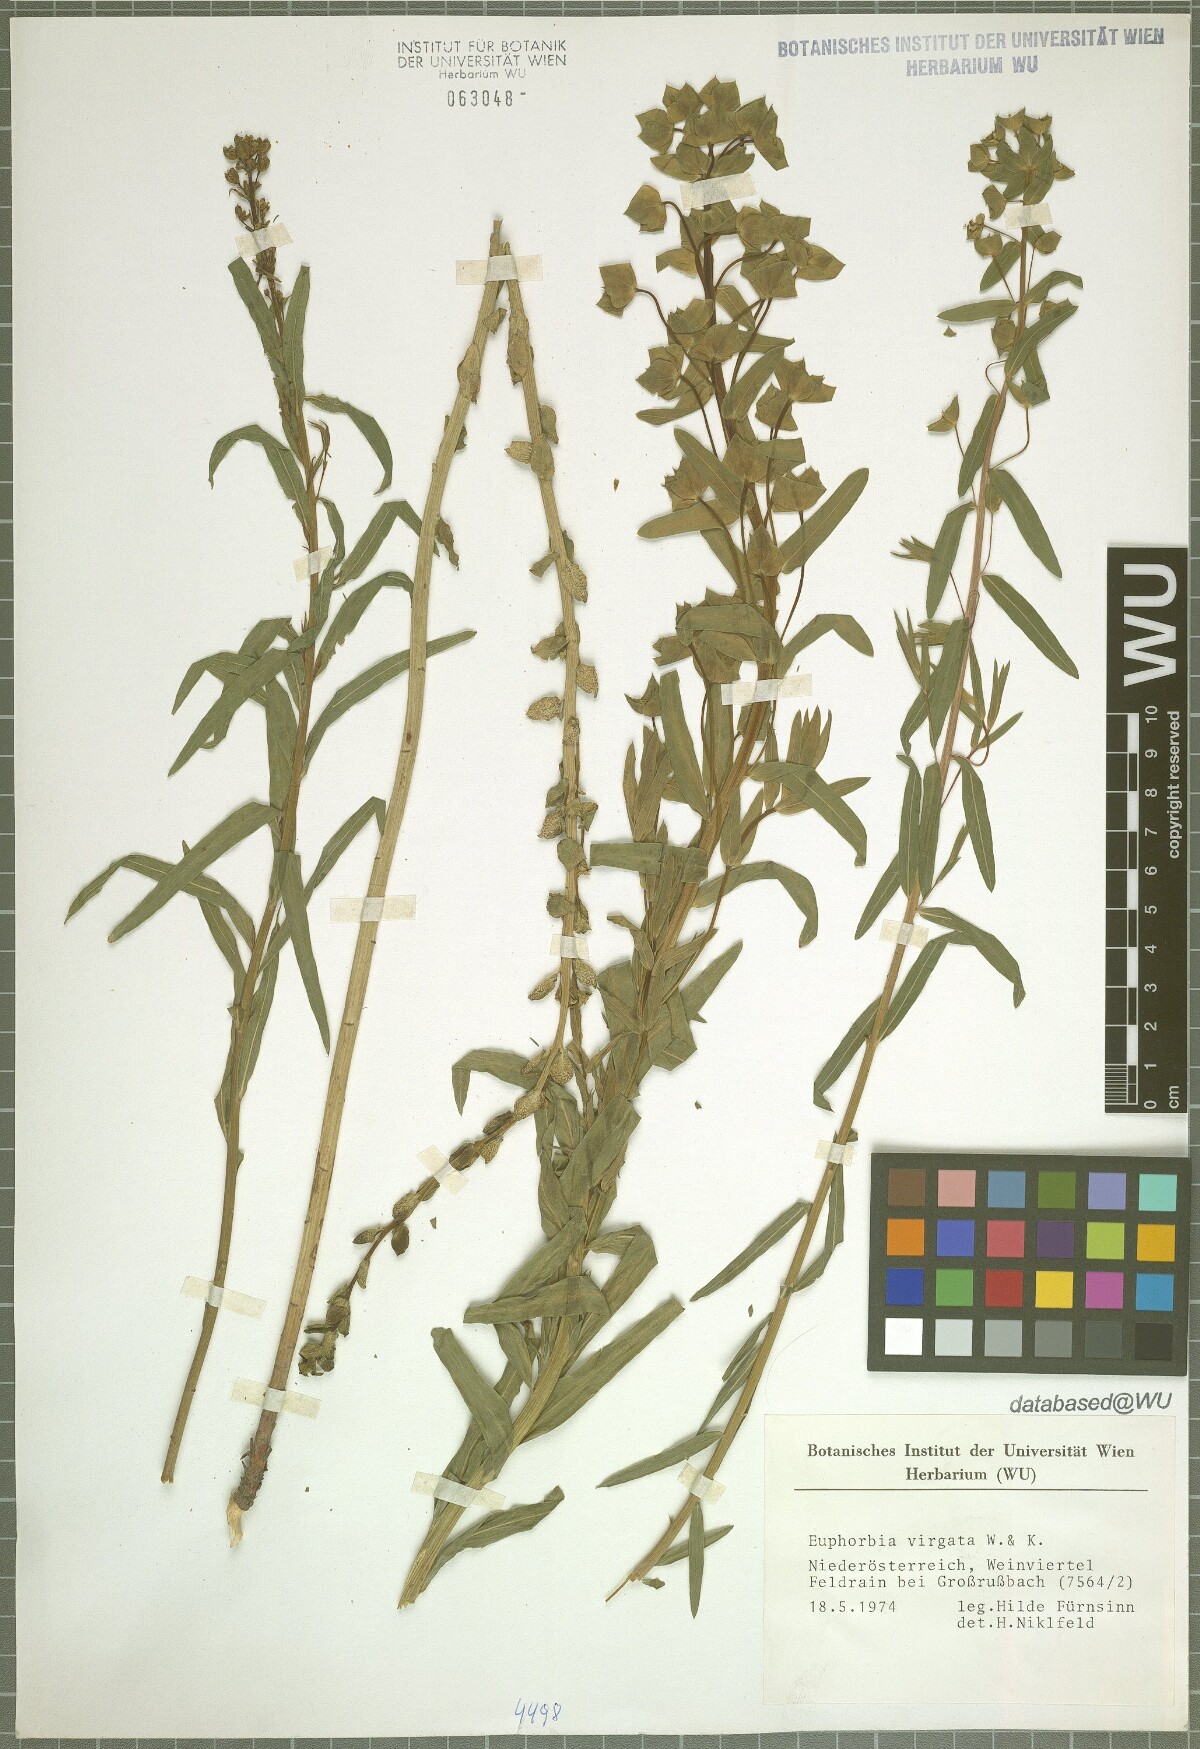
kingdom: Plantae
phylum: Tracheophyta
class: Magnoliopsida
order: Malpighiales
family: Euphorbiaceae
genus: Euphorbia
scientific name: Euphorbia virgata
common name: Leafy spurge
